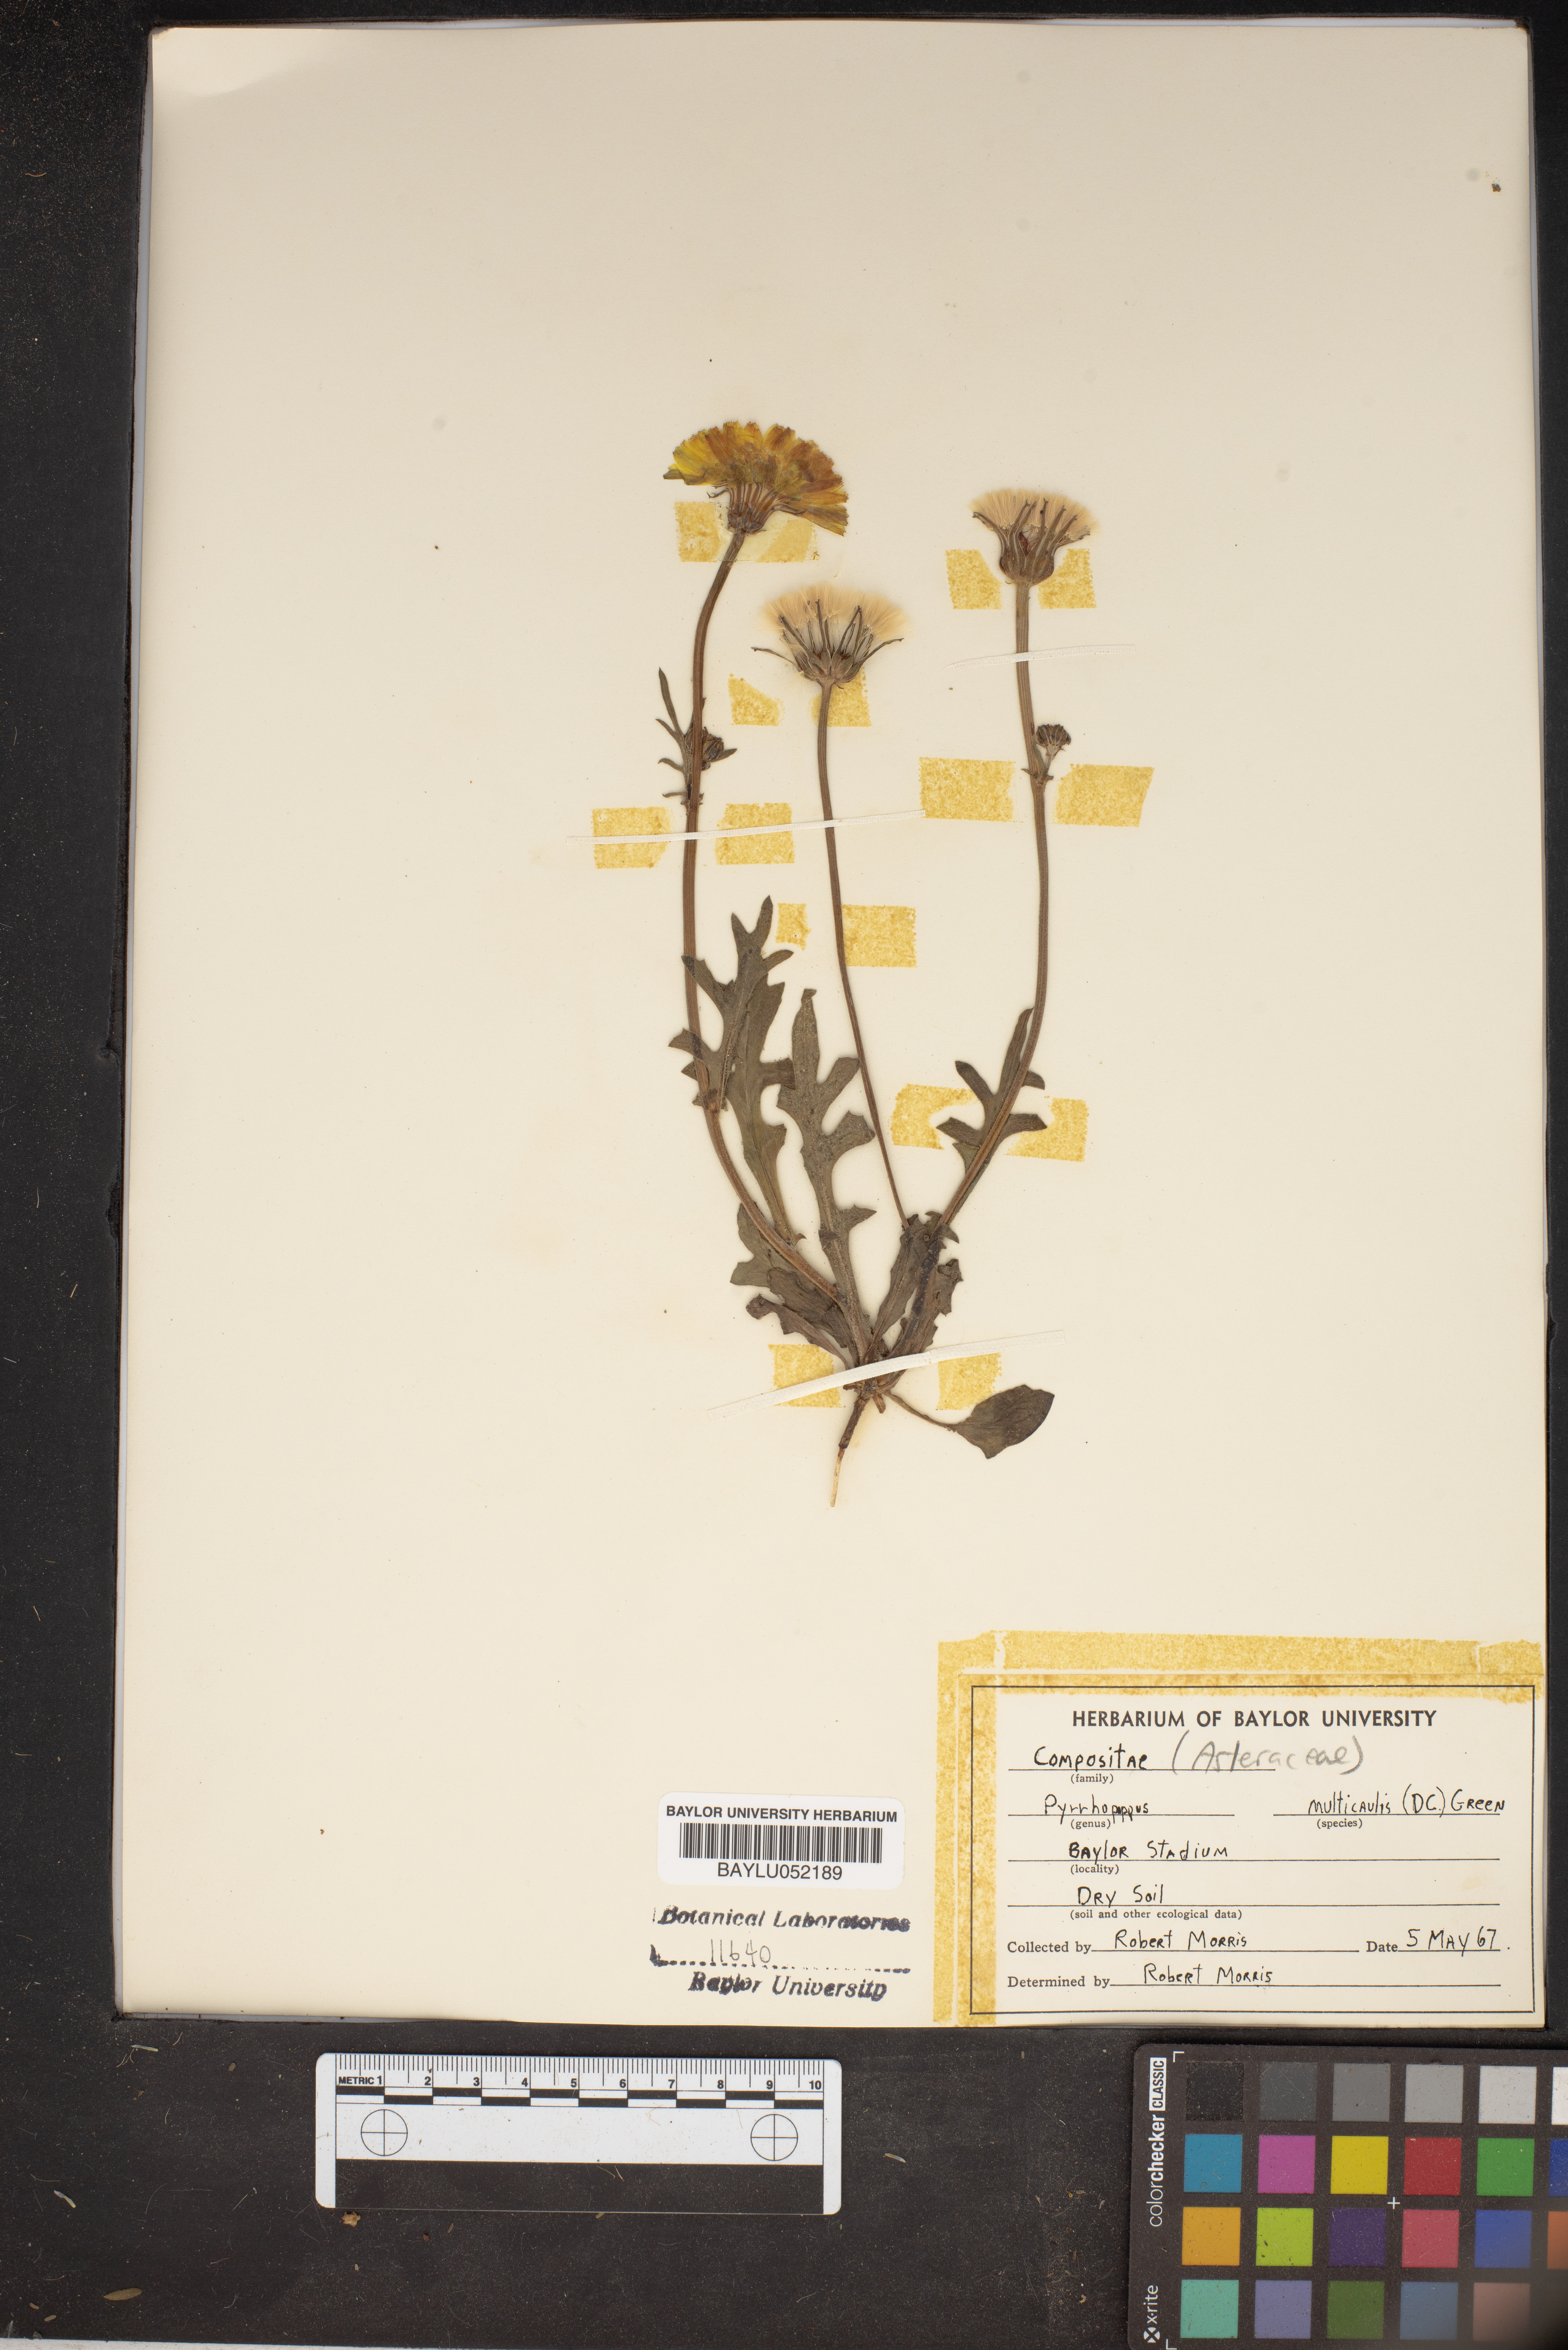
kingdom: Plantae
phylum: Tracheophyta
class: Magnoliopsida
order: Asterales
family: Asteraceae
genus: Pyrrhopappus
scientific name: Pyrrhopappus pauciflorus
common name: Texas false dandelion
